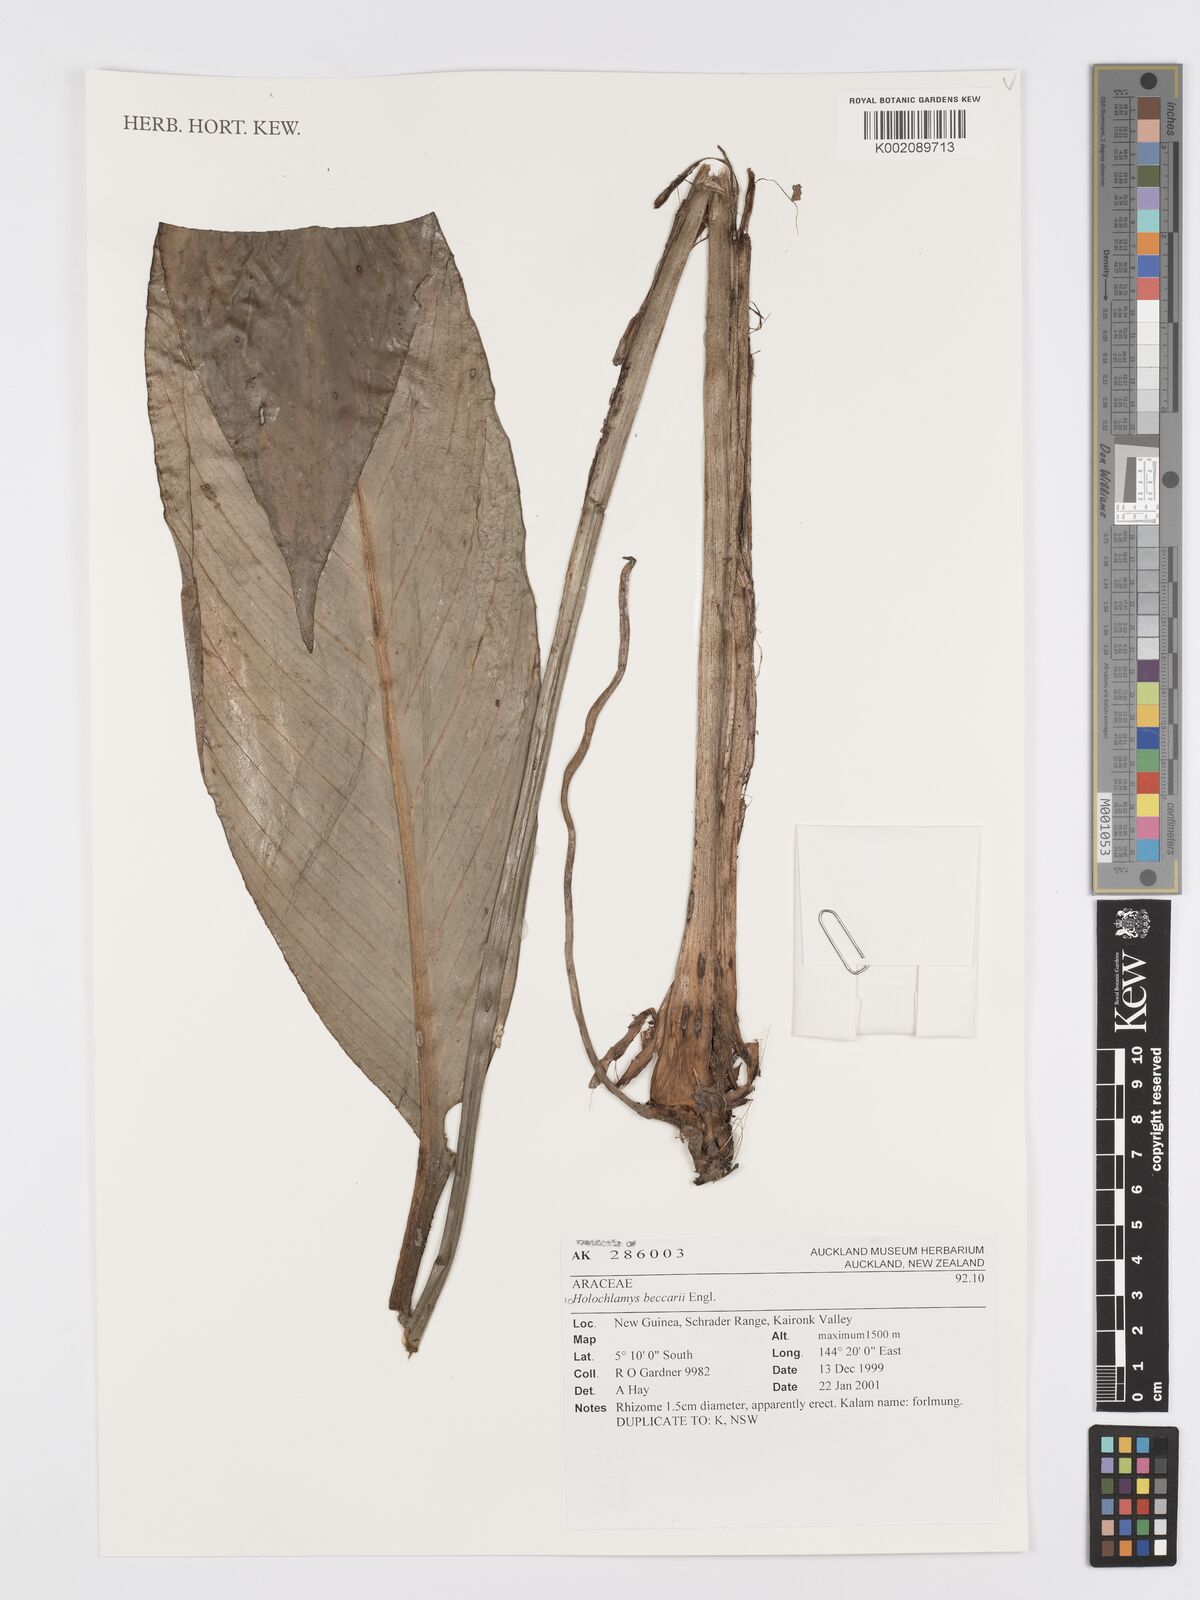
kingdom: Plantae
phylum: Tracheophyta
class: Liliopsida
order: Alismatales
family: Araceae
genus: Holochlamys
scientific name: Holochlamys beccarii
